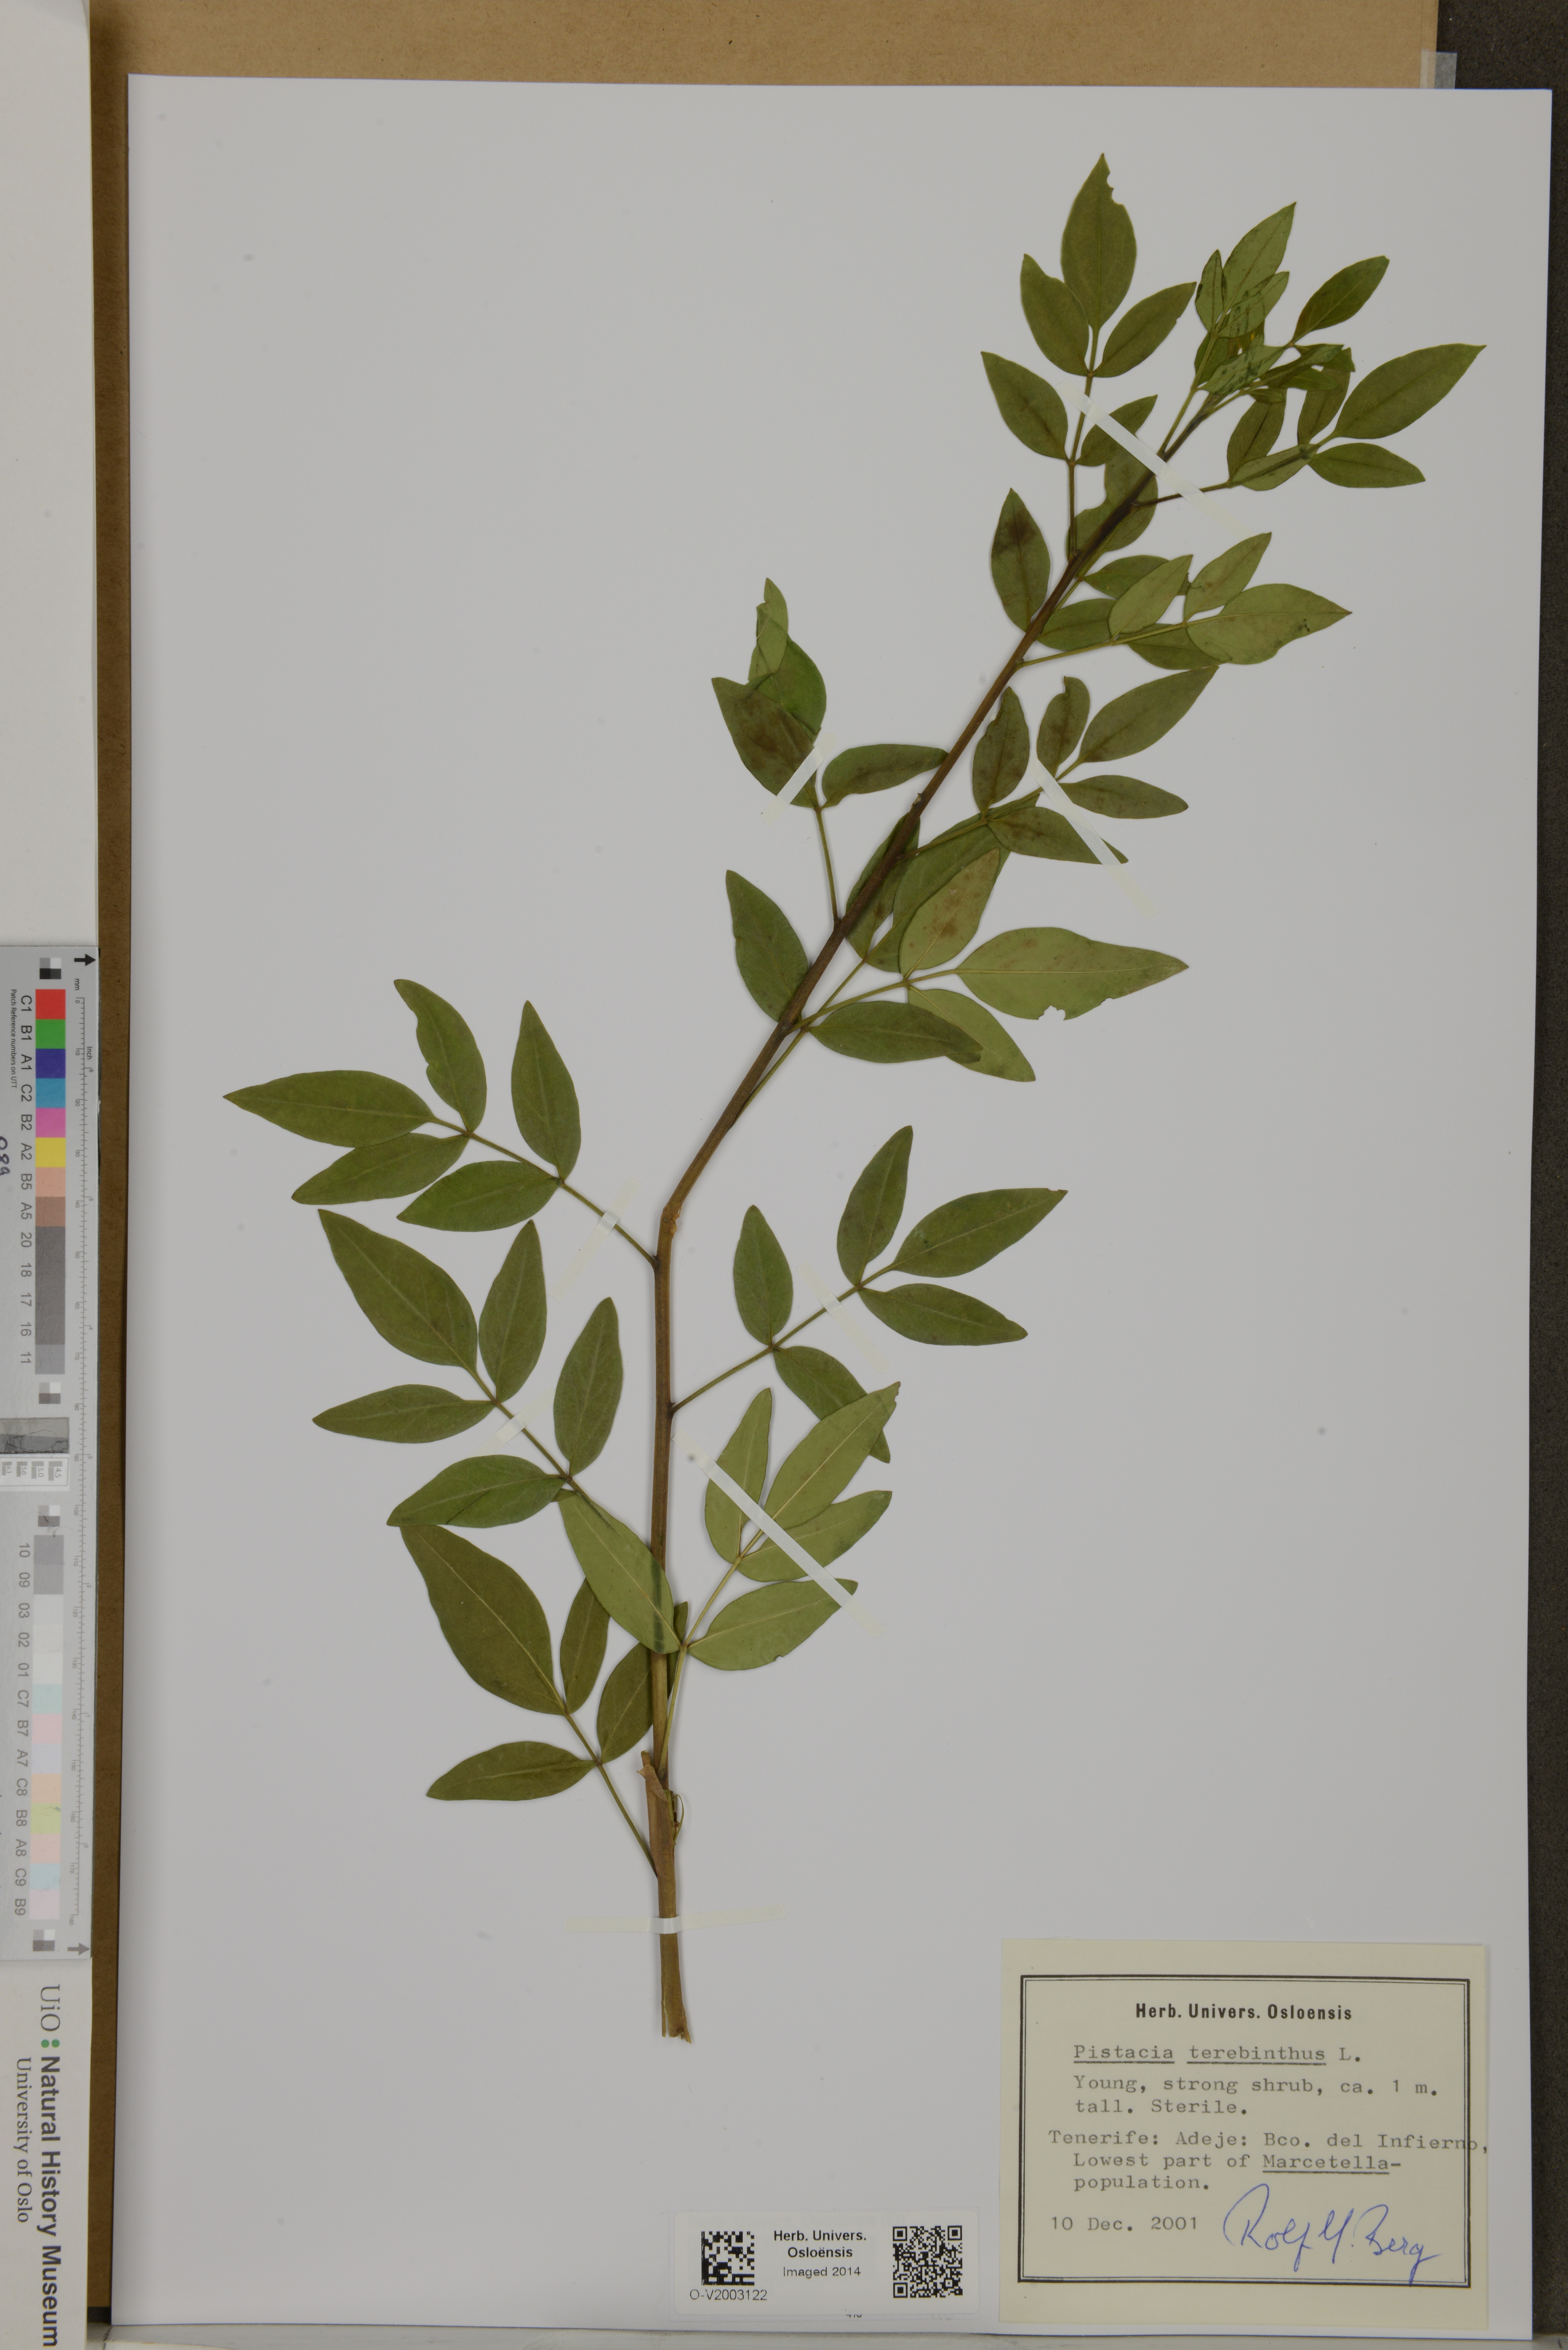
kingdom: Plantae
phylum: Tracheophyta
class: Magnoliopsida
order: Sapindales
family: Anacardiaceae
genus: Pistacia
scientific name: Pistacia terebinthus
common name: Terebinth
